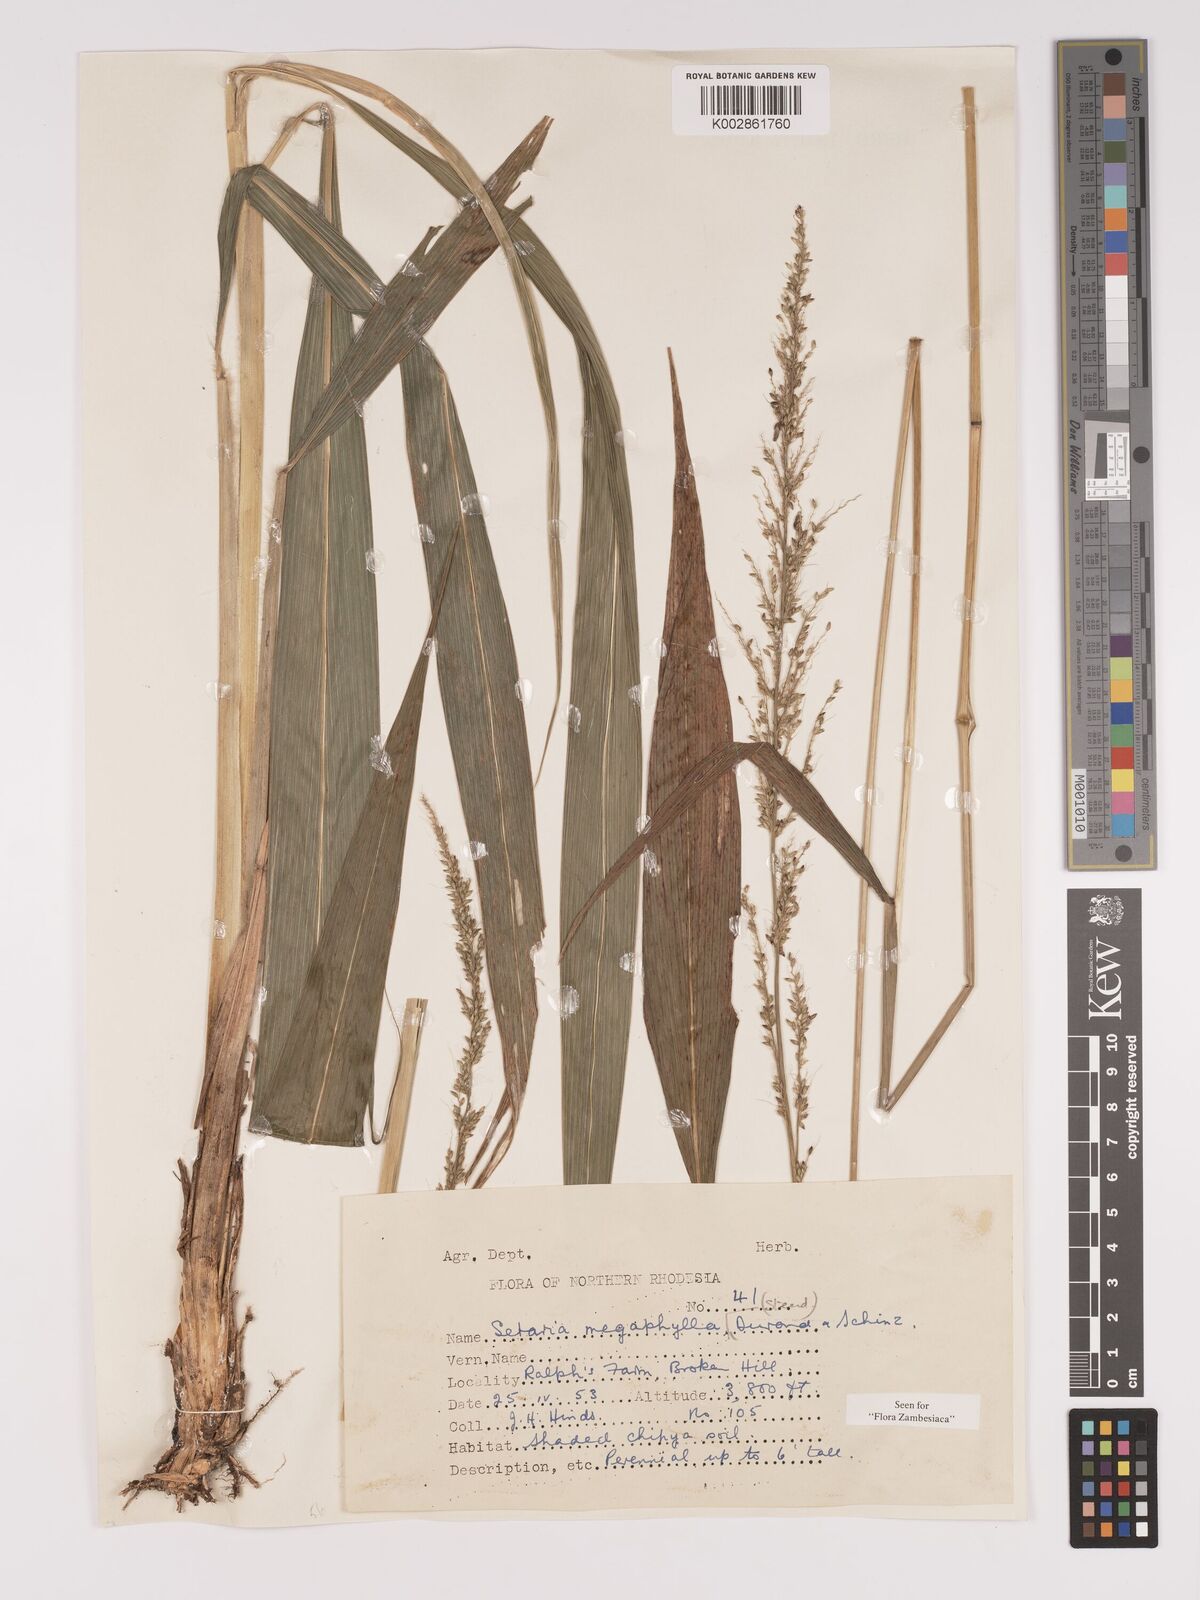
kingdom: Plantae
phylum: Tracheophyta
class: Liliopsida
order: Poales
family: Poaceae
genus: Setaria
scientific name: Setaria megaphylla
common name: Bigleaf bristlegrass
